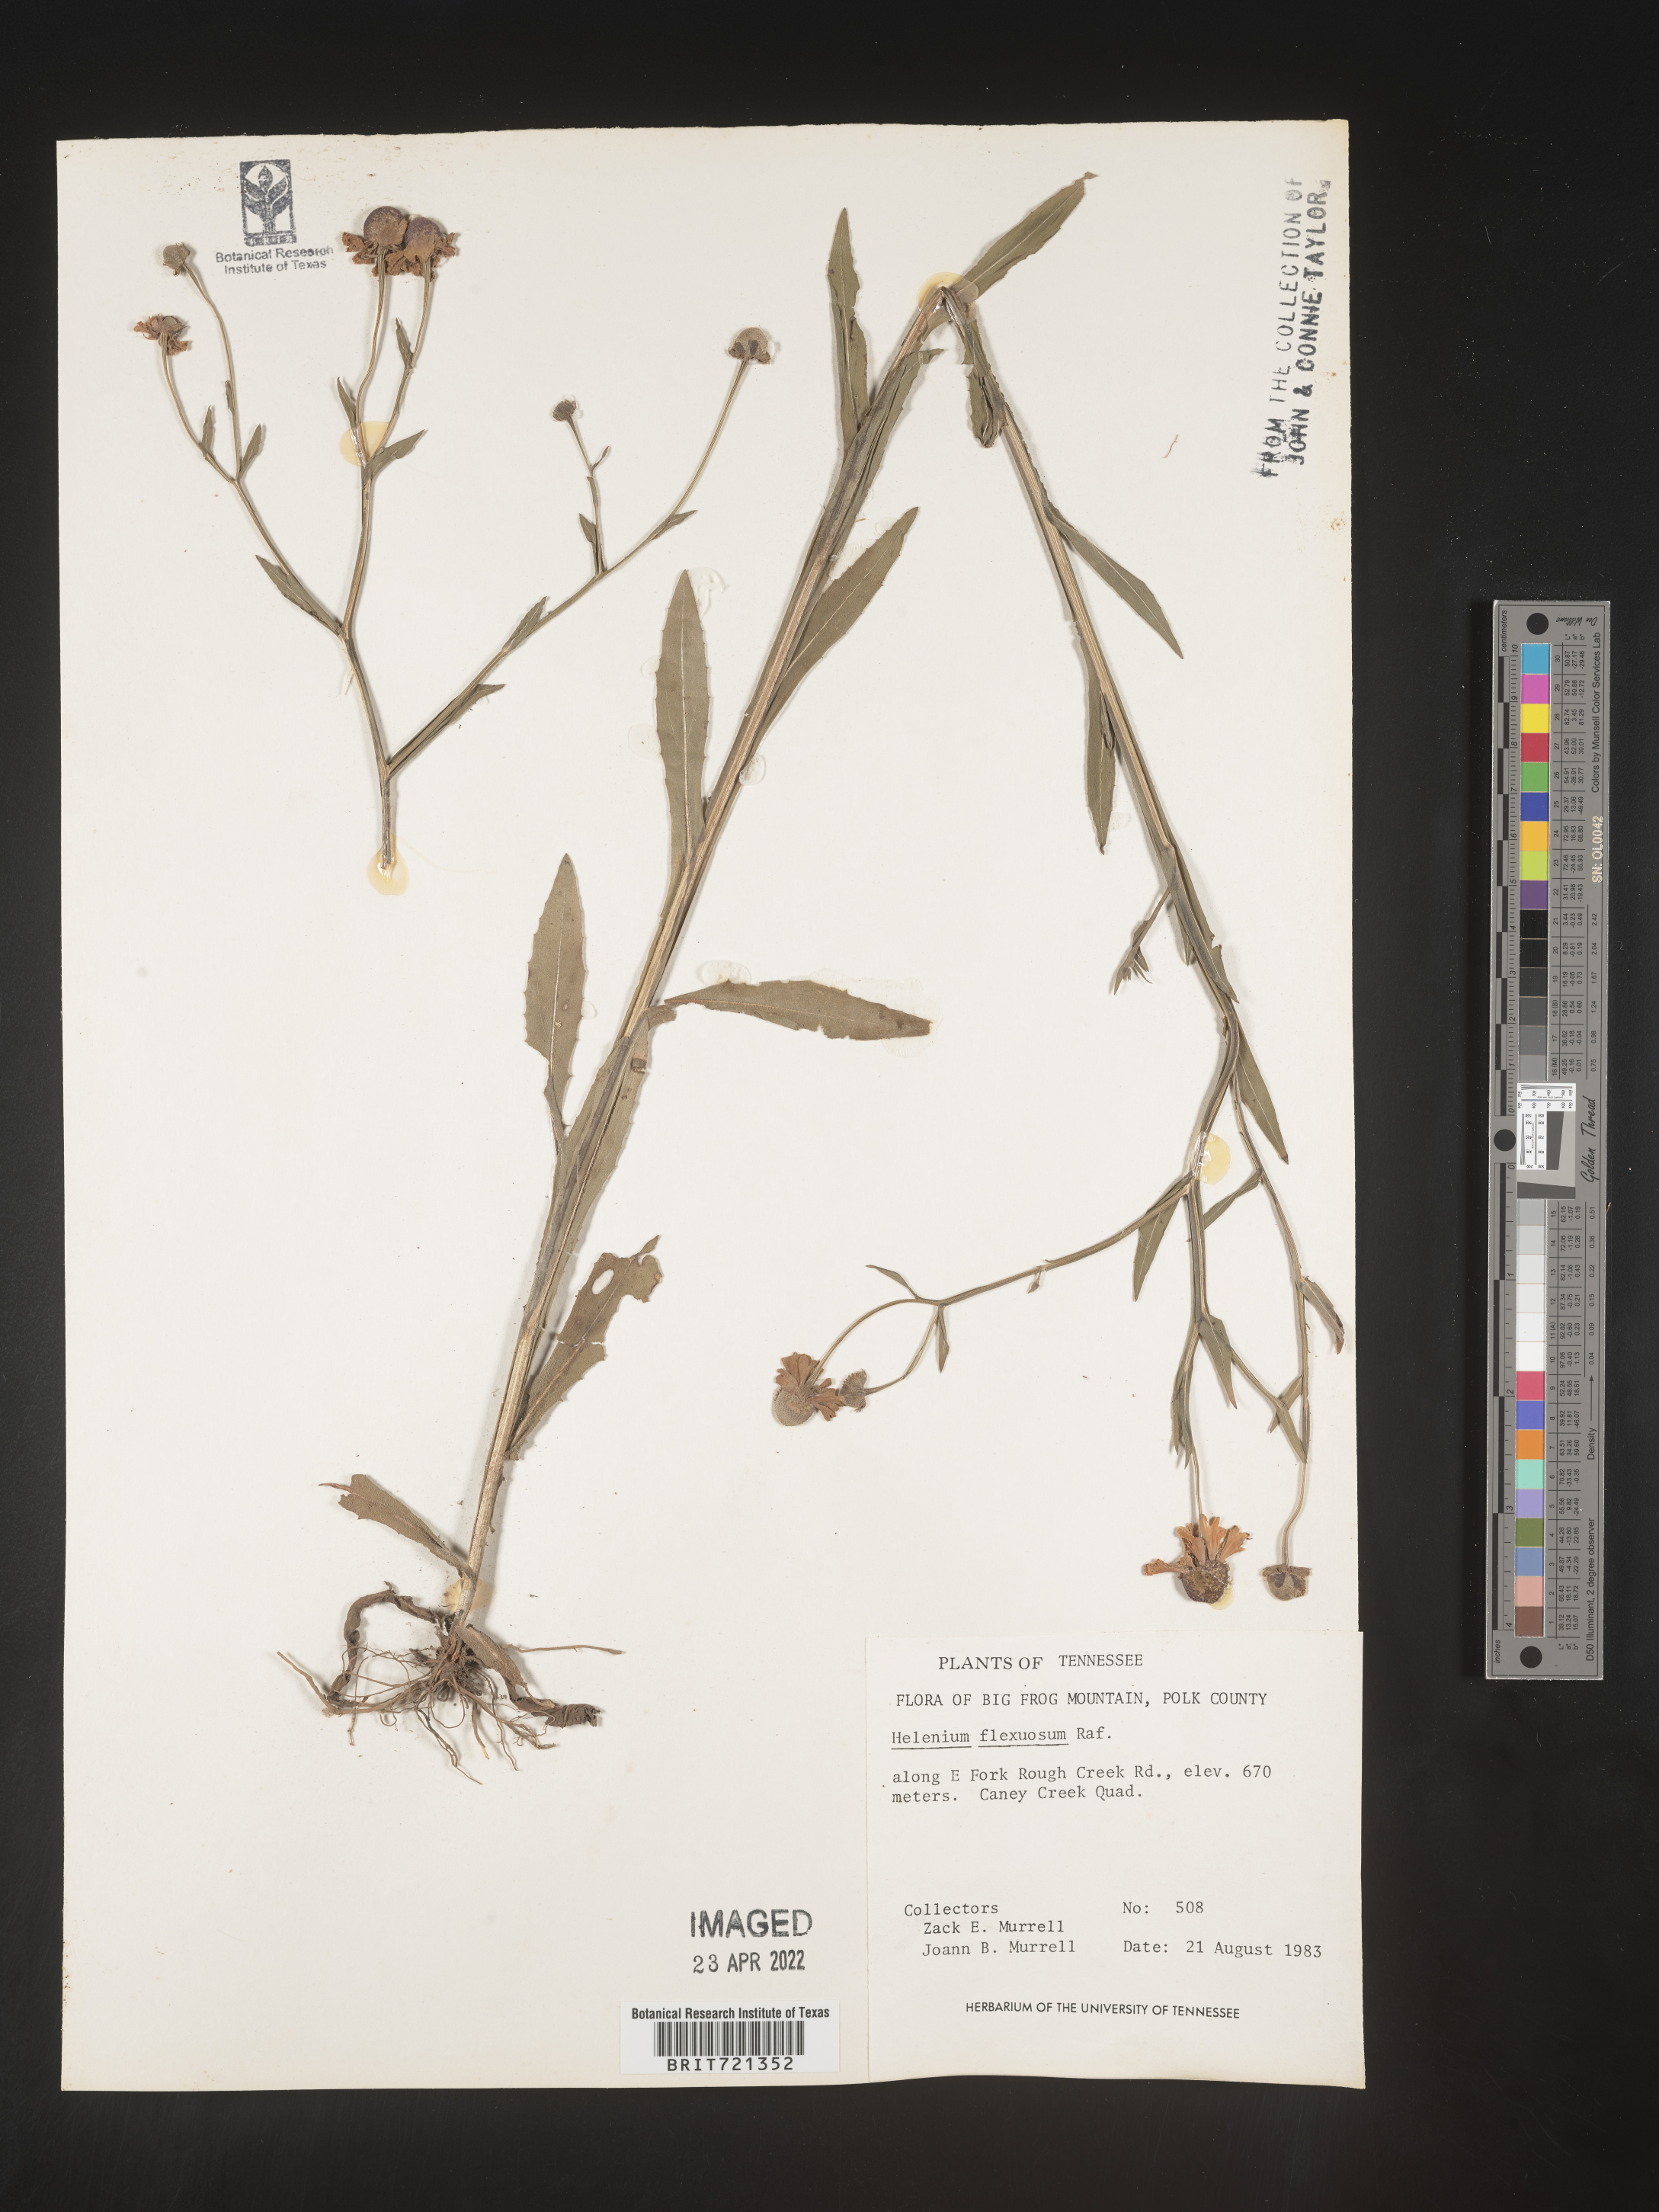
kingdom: Plantae
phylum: Tracheophyta
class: Magnoliopsida
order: Asterales
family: Asteraceae
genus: Helenium
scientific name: Helenium flexuosum
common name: Naked-flowered sneezeweed
